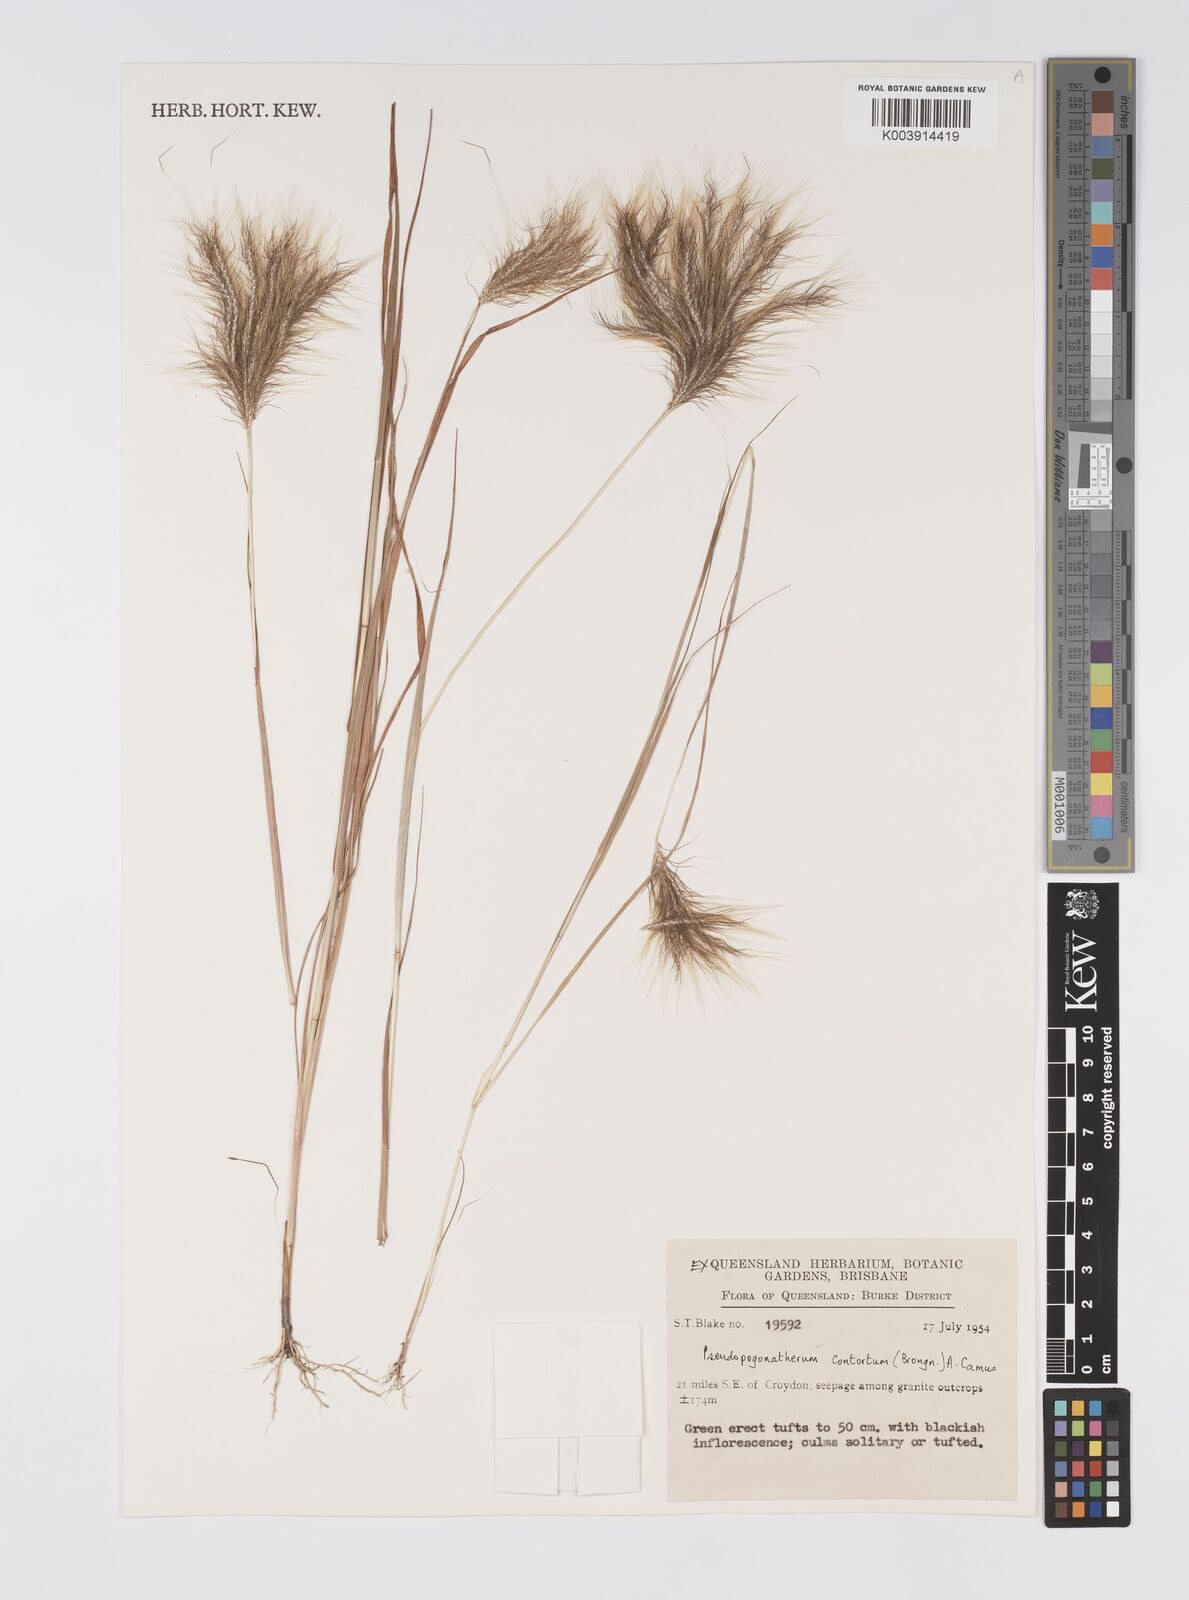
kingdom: Plantae
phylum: Tracheophyta
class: Liliopsida
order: Poales
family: Poaceae
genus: Pseudopogonatherum
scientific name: Pseudopogonatherum contortum
